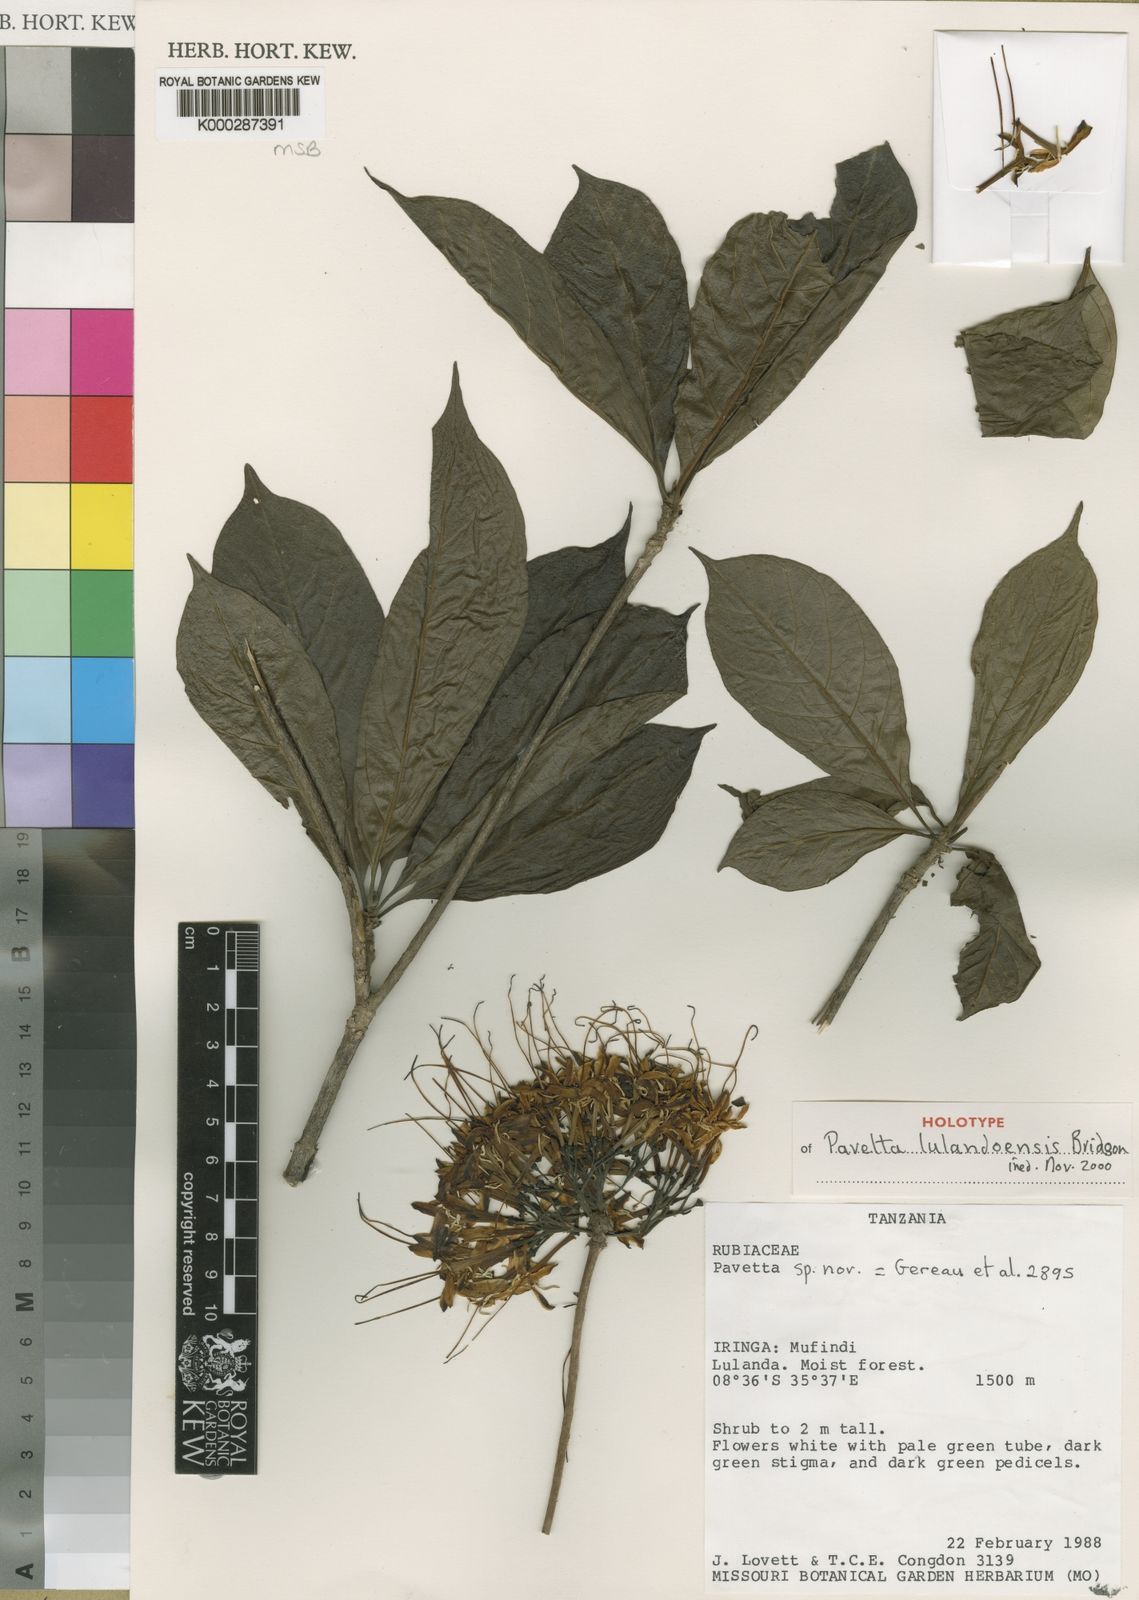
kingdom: Plantae
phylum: Tracheophyta
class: Magnoliopsida
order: Gentianales
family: Rubiaceae
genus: Pavetta
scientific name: Pavetta lulandoensis
